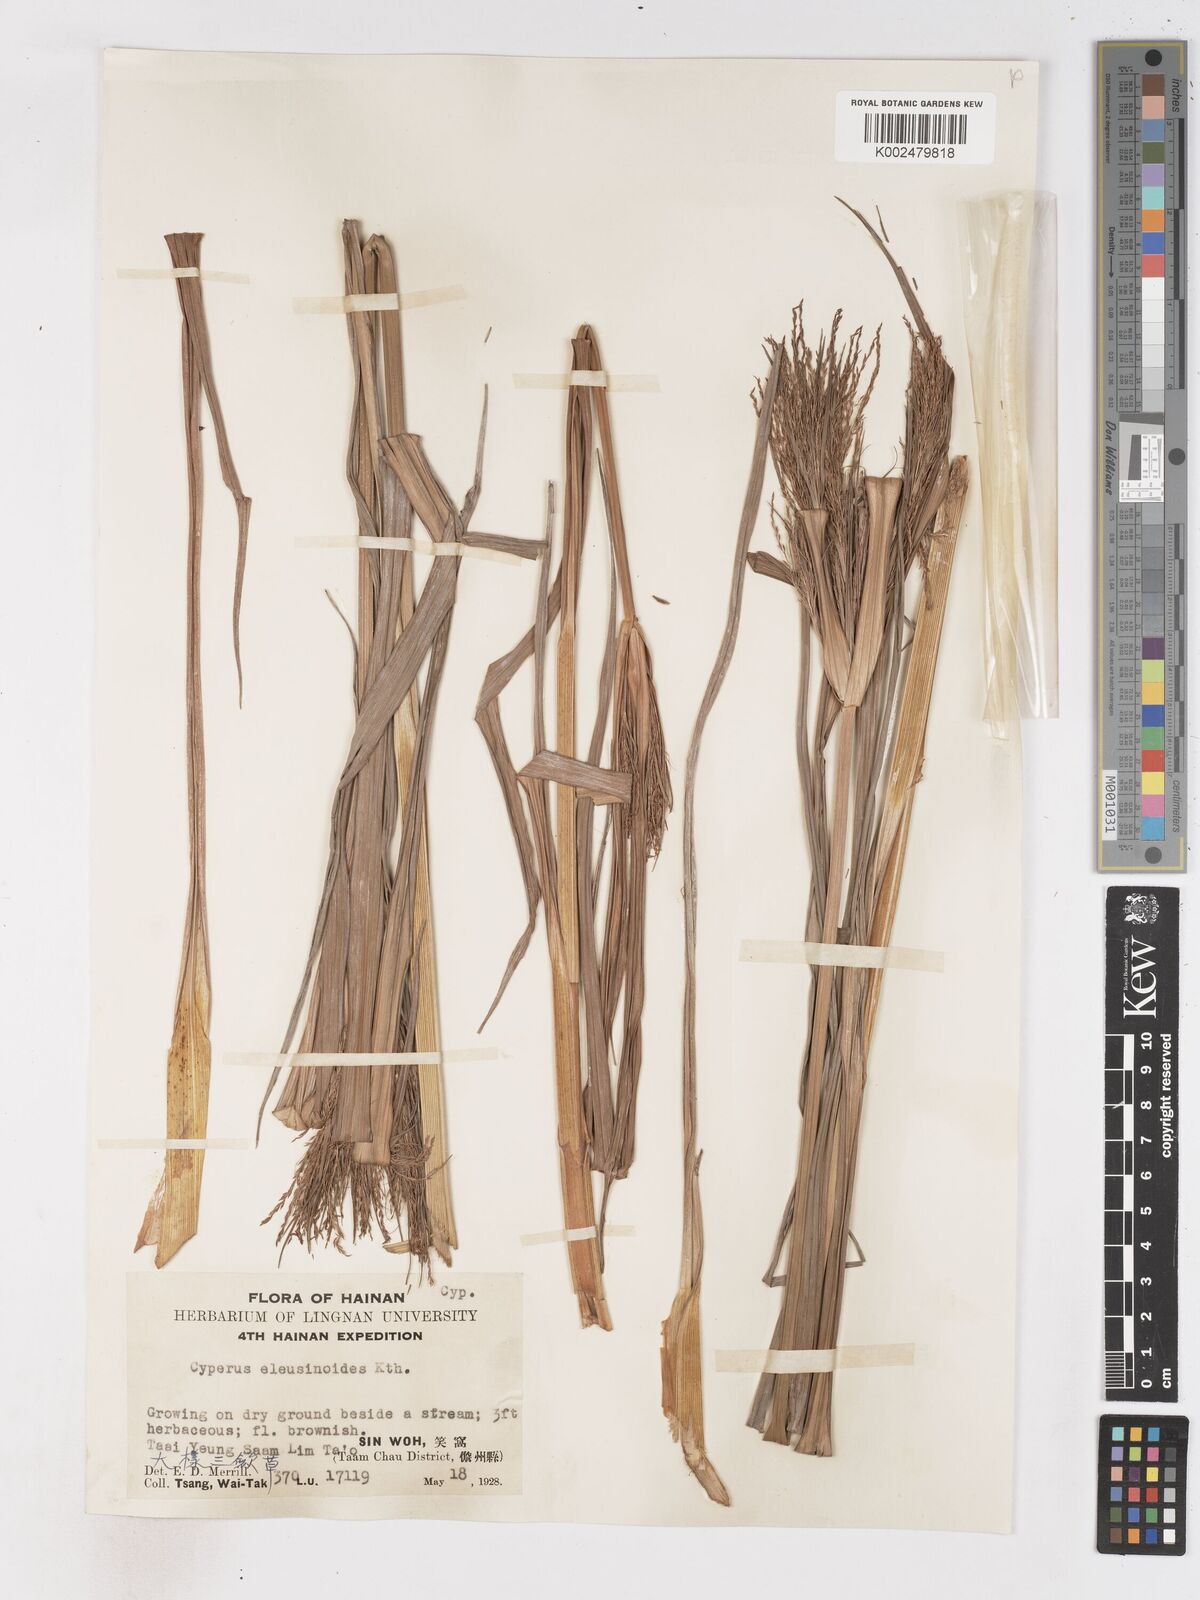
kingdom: Plantae
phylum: Tracheophyta
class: Liliopsida
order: Poales
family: Cyperaceae
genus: Cyperus
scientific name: Cyperus nutans
